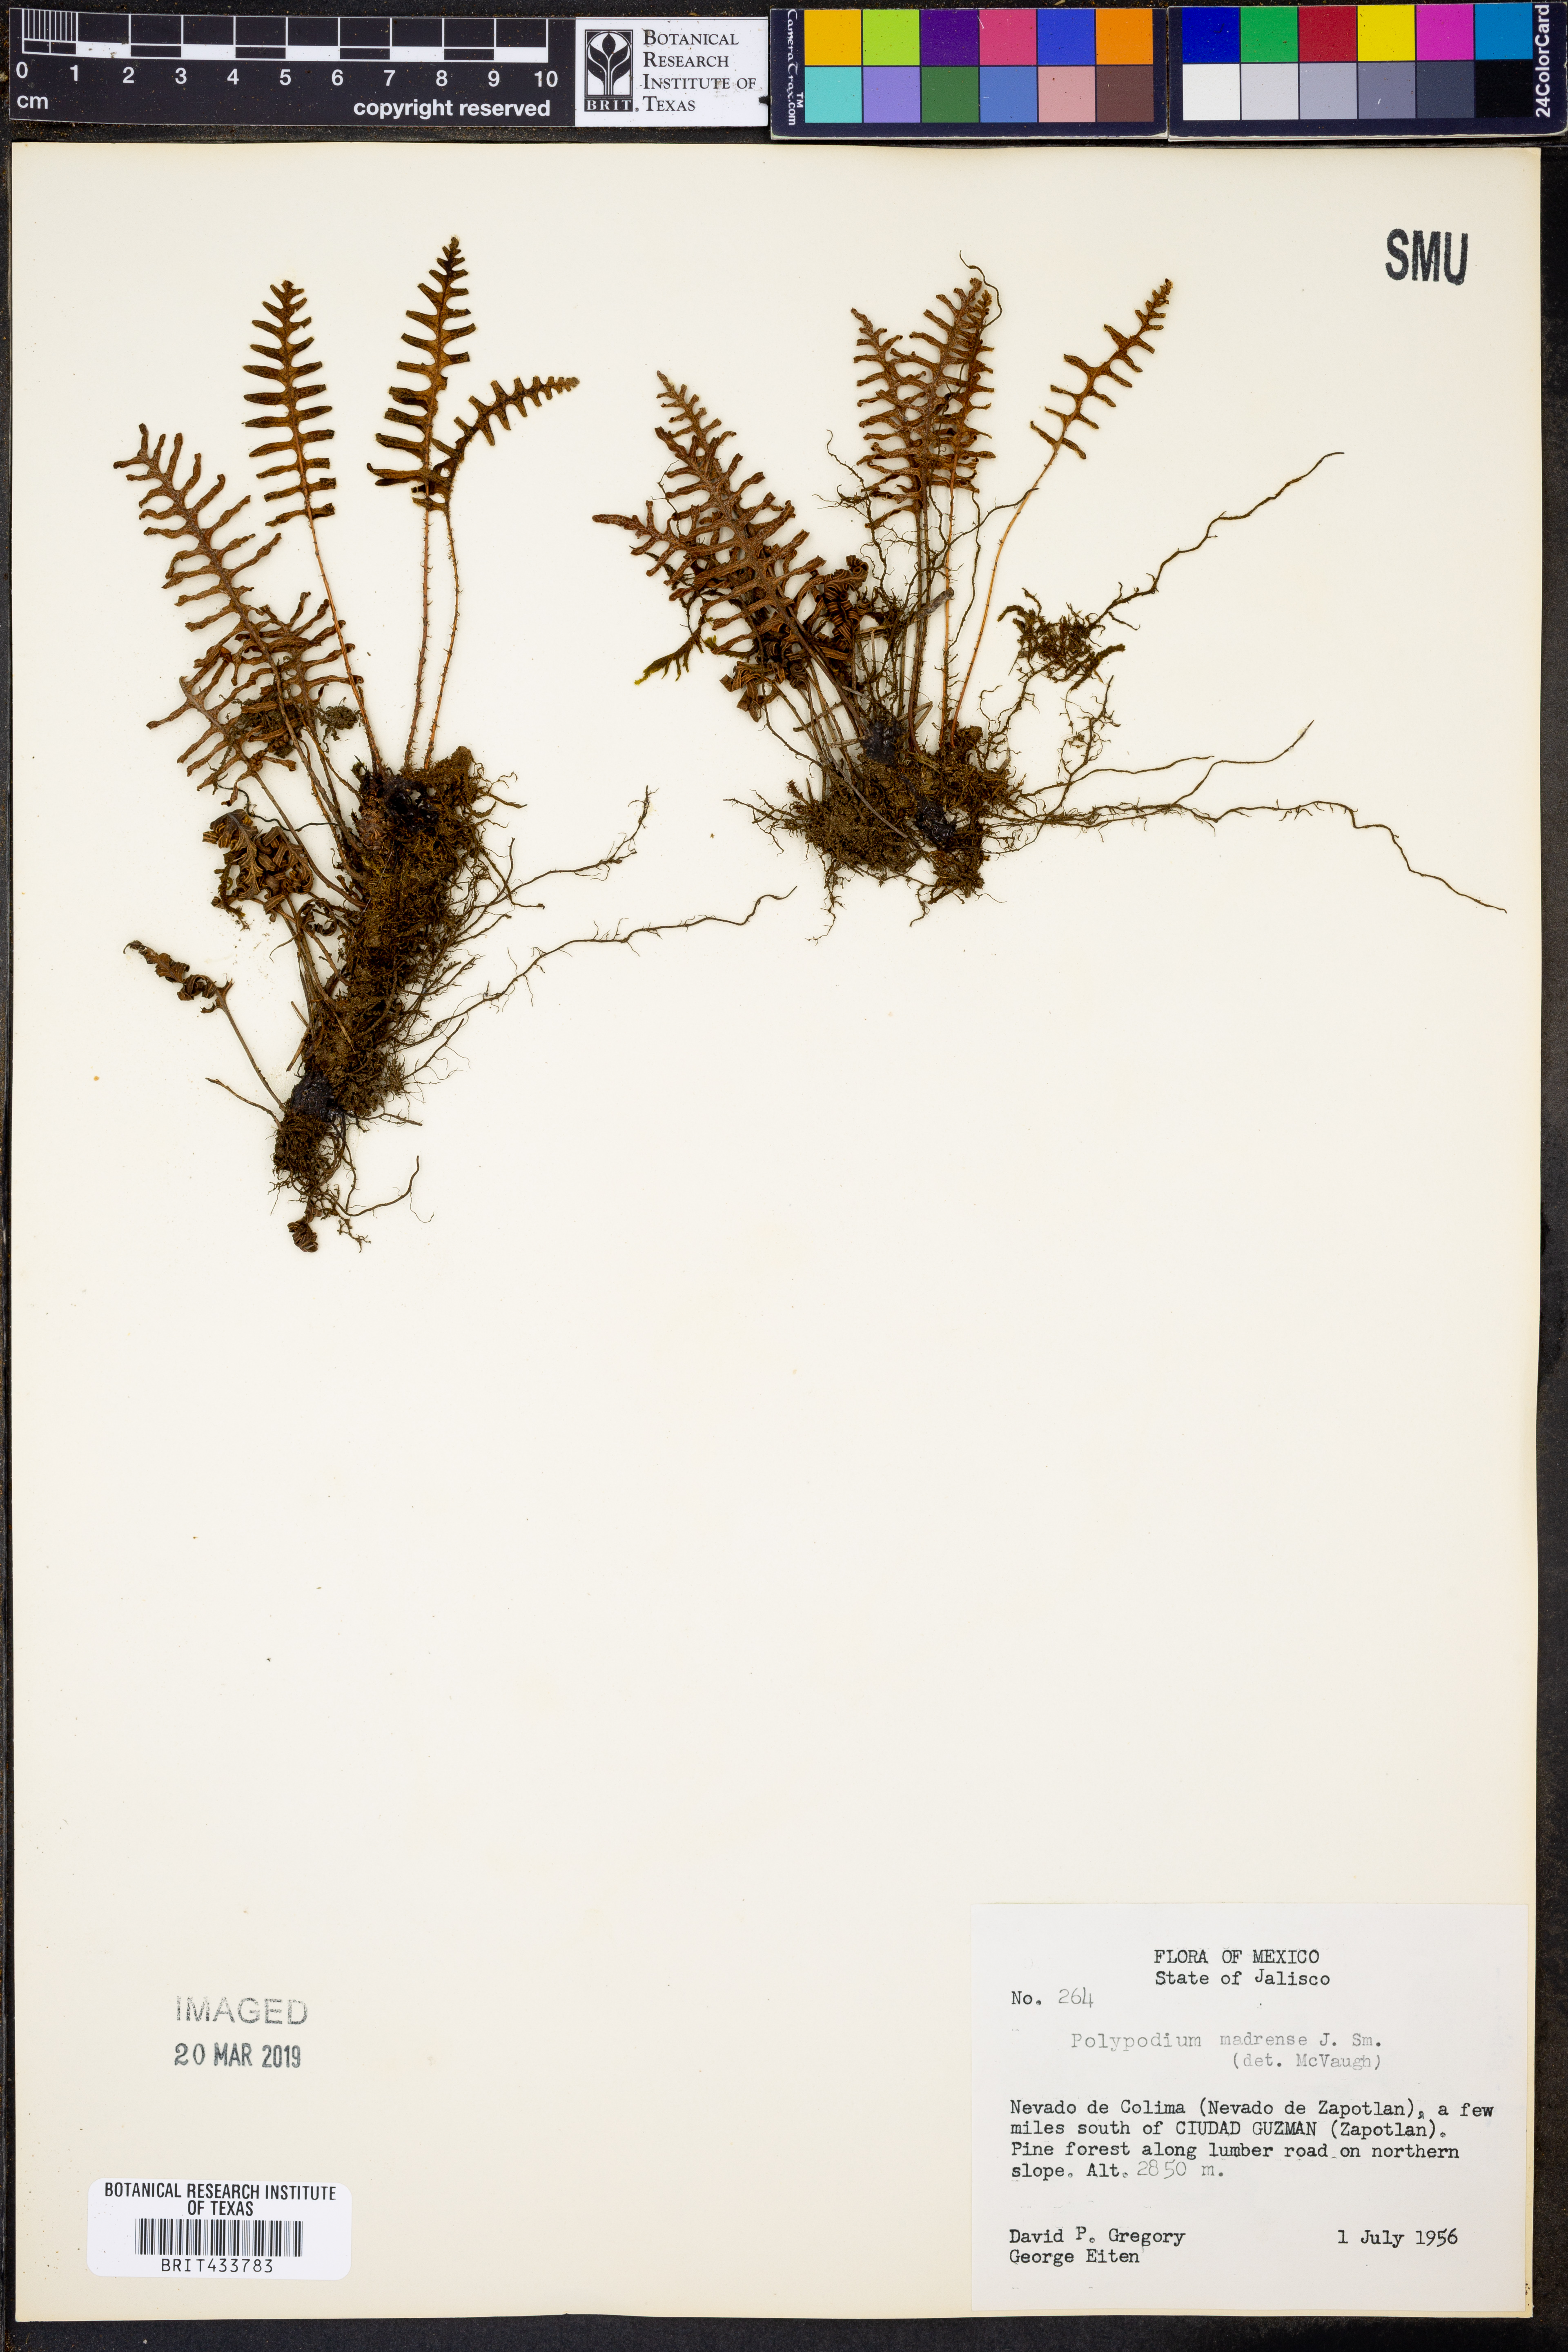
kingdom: Plantae
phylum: Tracheophyta
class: Polypodiopsida
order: Polypodiales
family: Polypodiaceae
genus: Pleopeltis
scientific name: Pleopeltis madrensis
